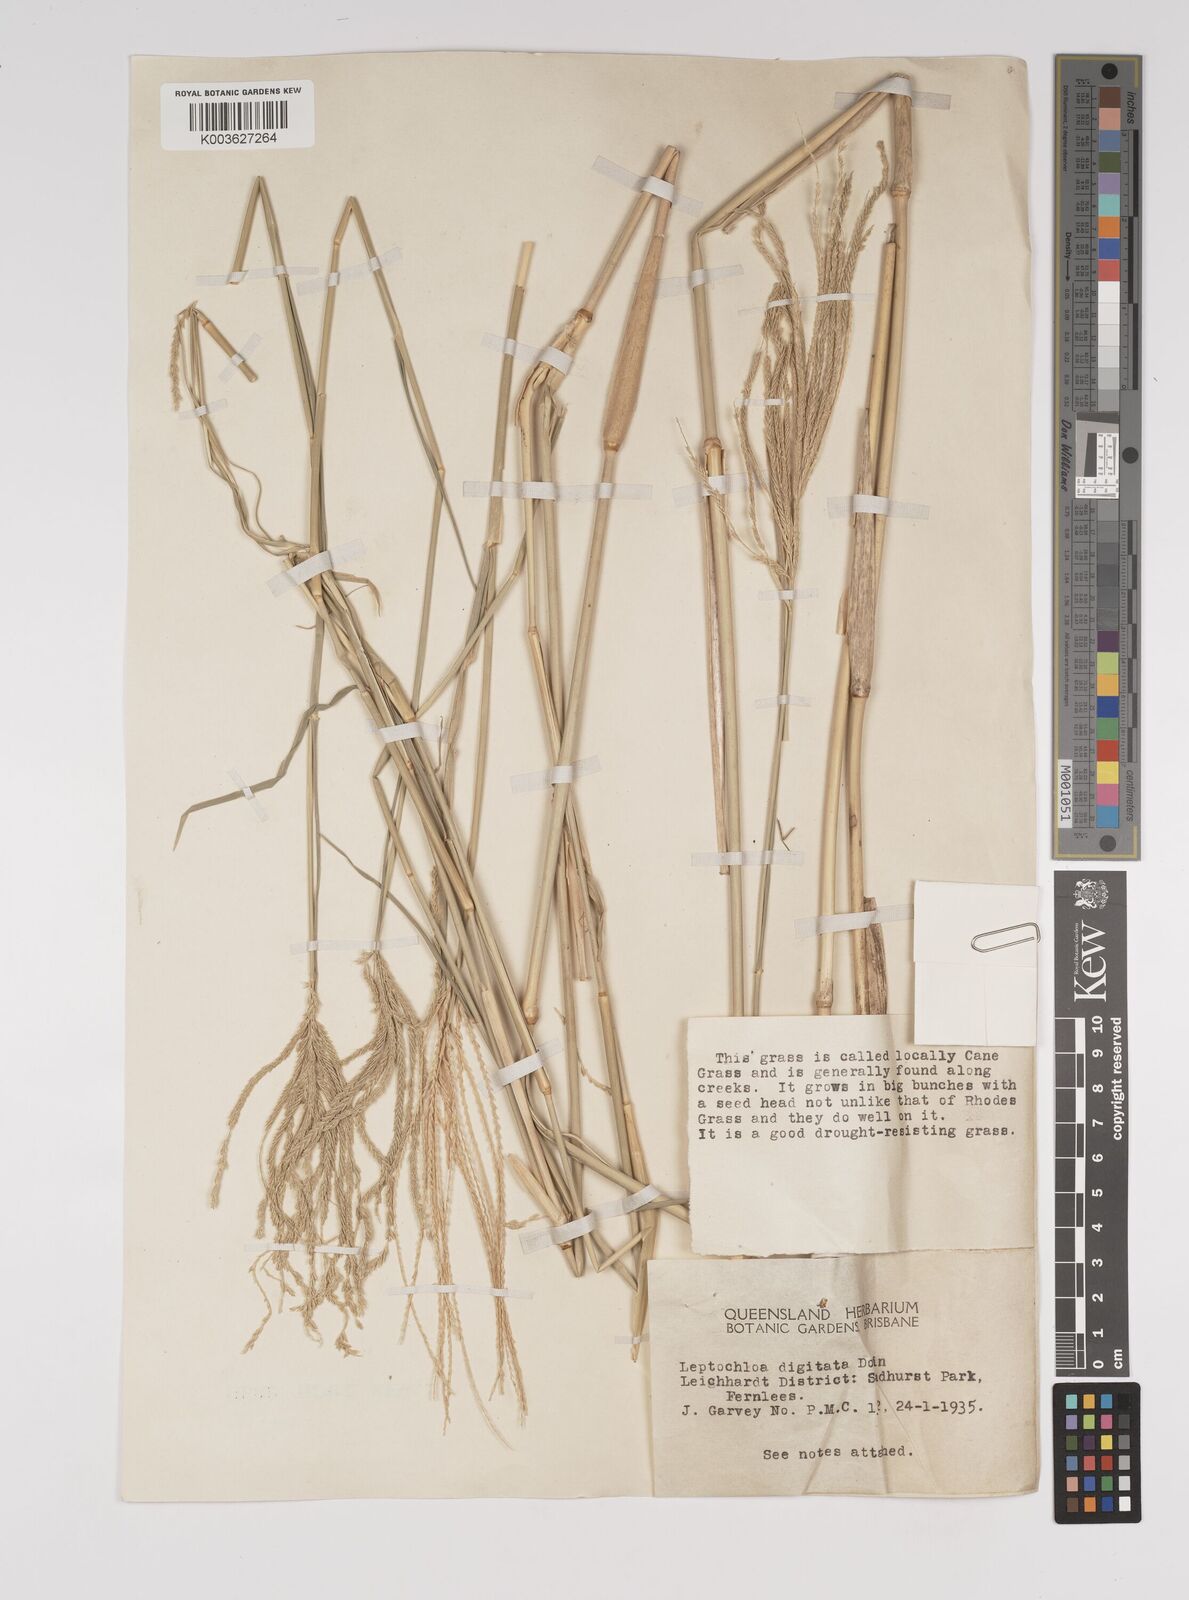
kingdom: Plantae
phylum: Tracheophyta
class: Liliopsida
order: Poales
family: Poaceae
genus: Leptochloa
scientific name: Leptochloa digitata
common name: Finger sprangletop
